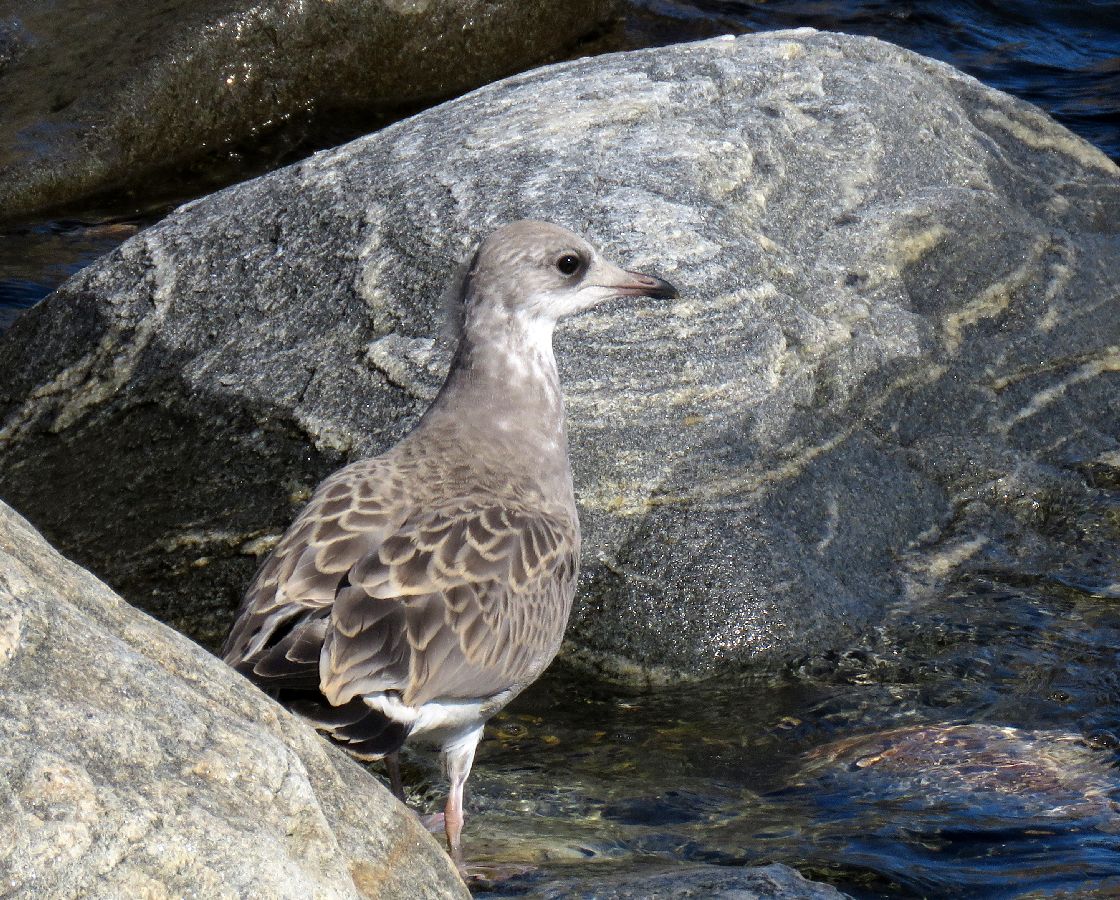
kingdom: Animalia
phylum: Chordata
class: Aves
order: Charadriiformes
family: Laridae
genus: Larus
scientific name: Larus canus
